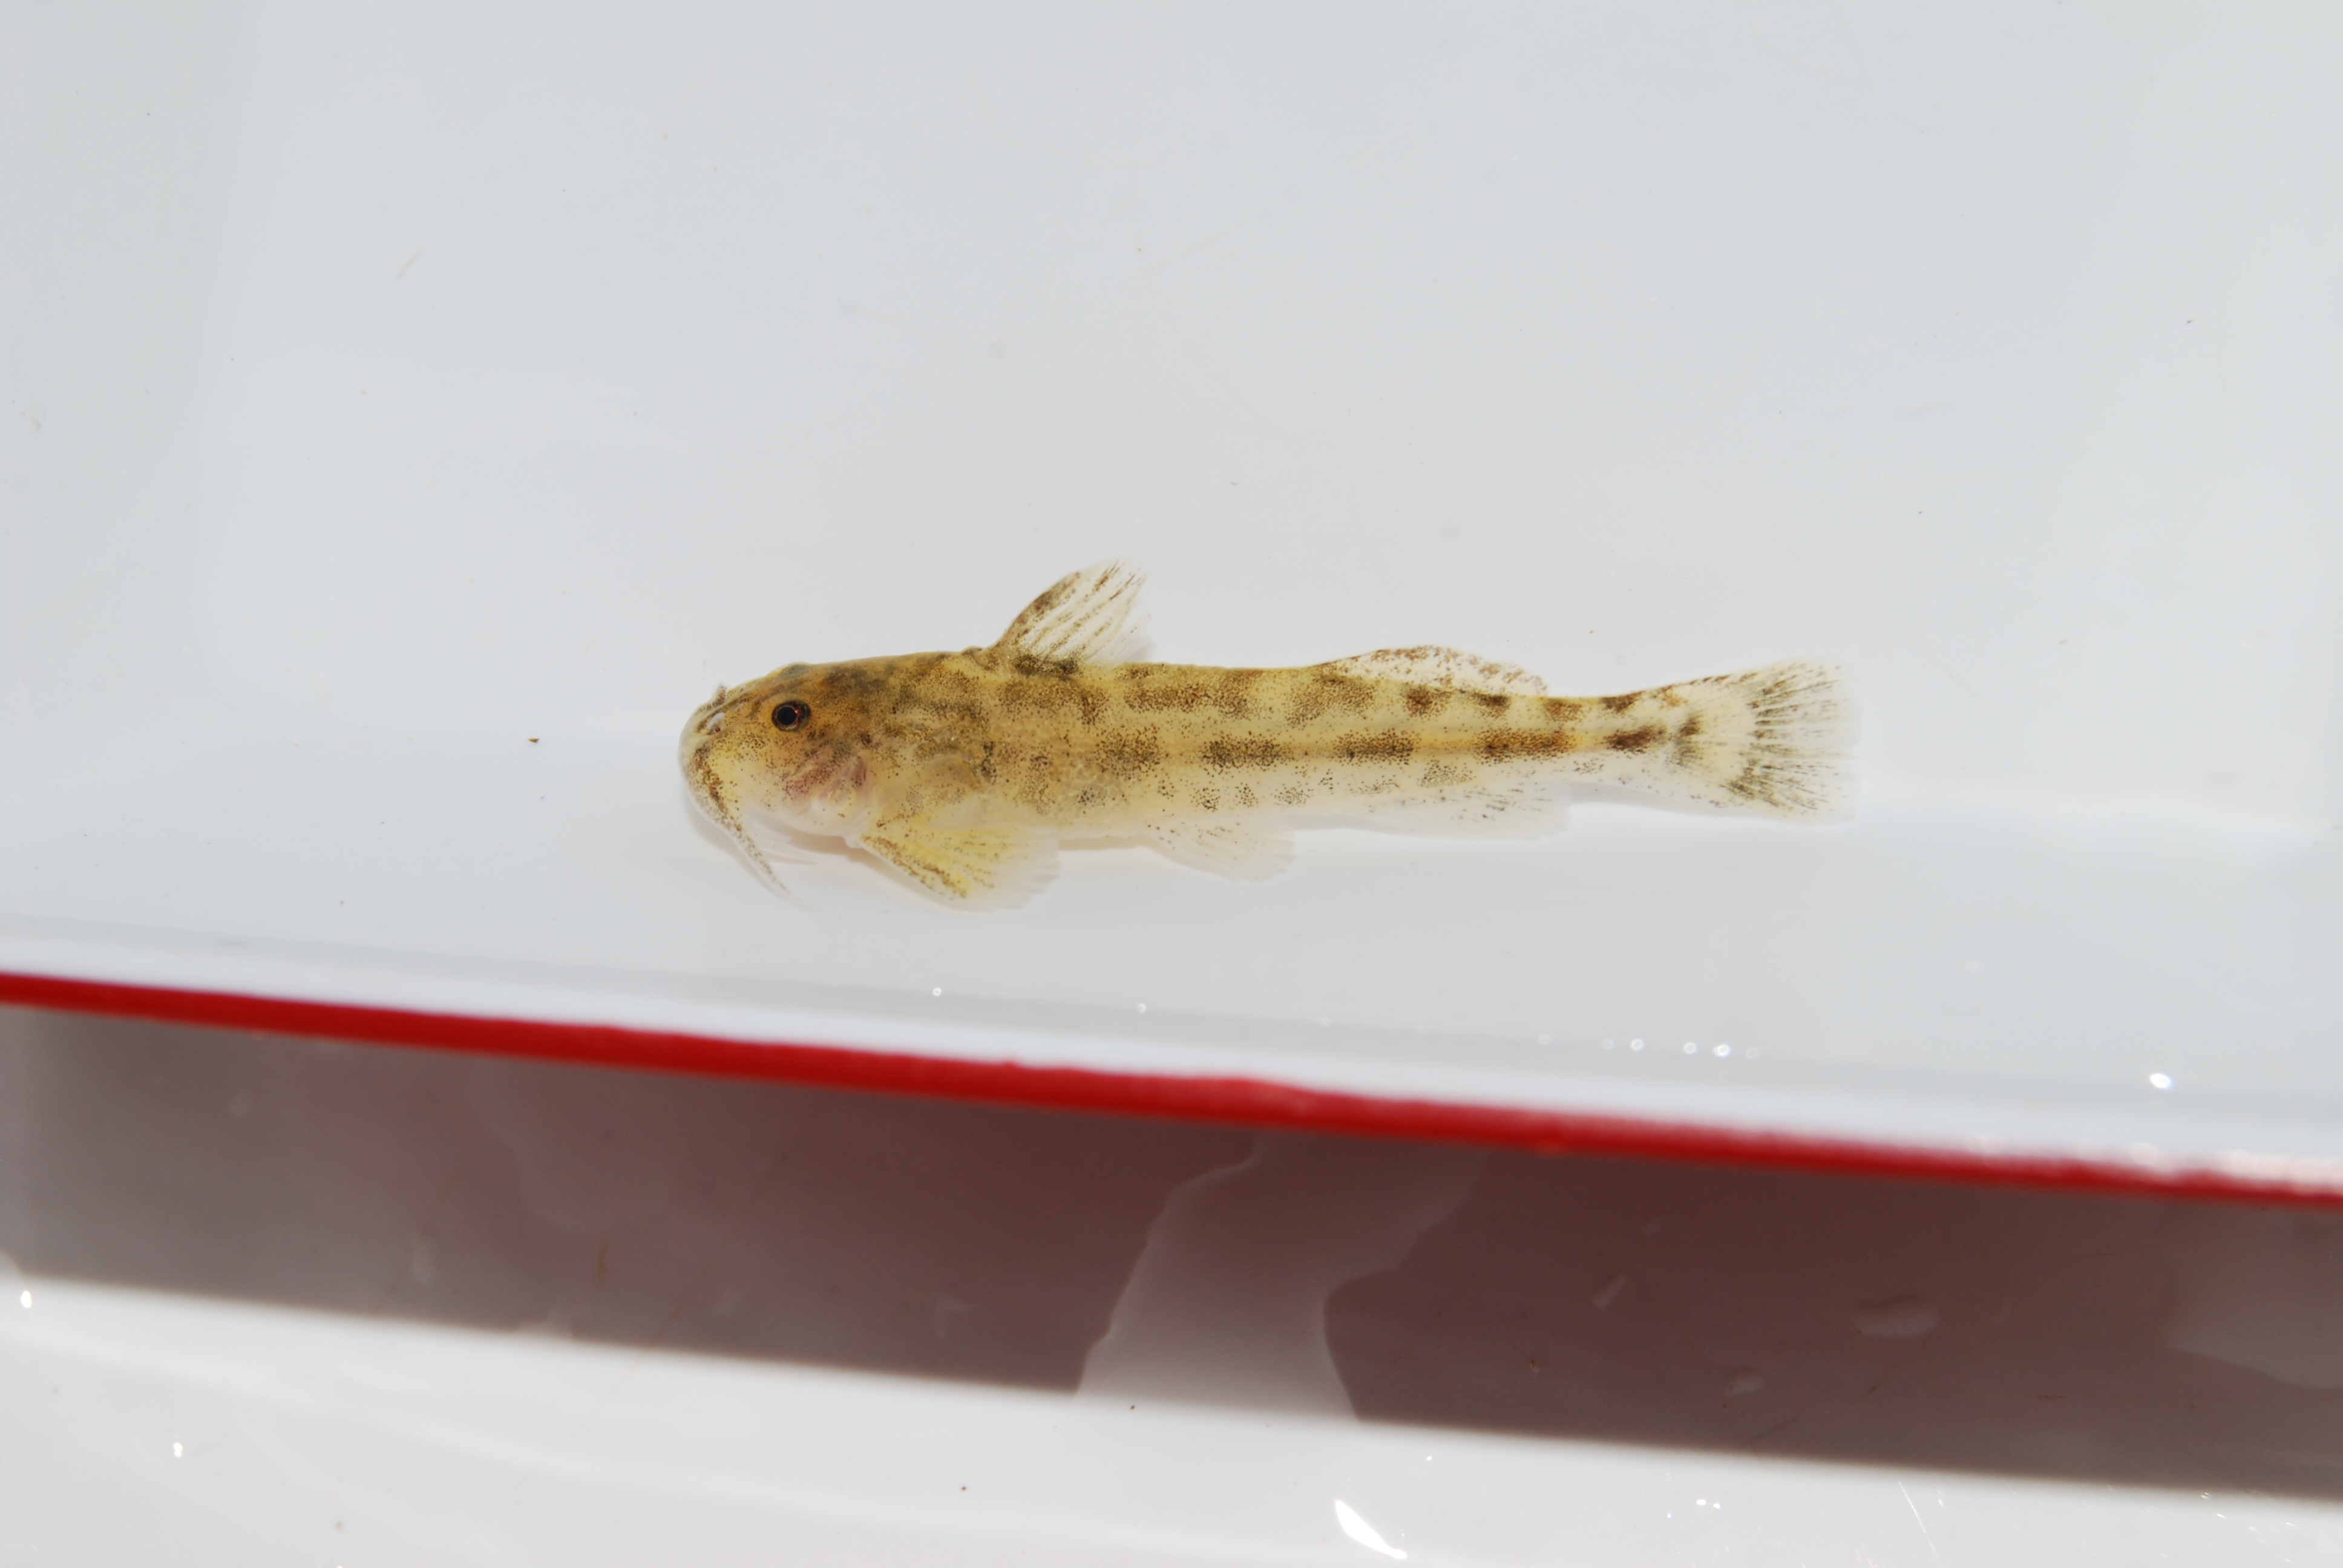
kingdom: Animalia
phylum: Chordata
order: Siluriformes
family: Amphiliidae
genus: Zaireichthys
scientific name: Zaireichthys
